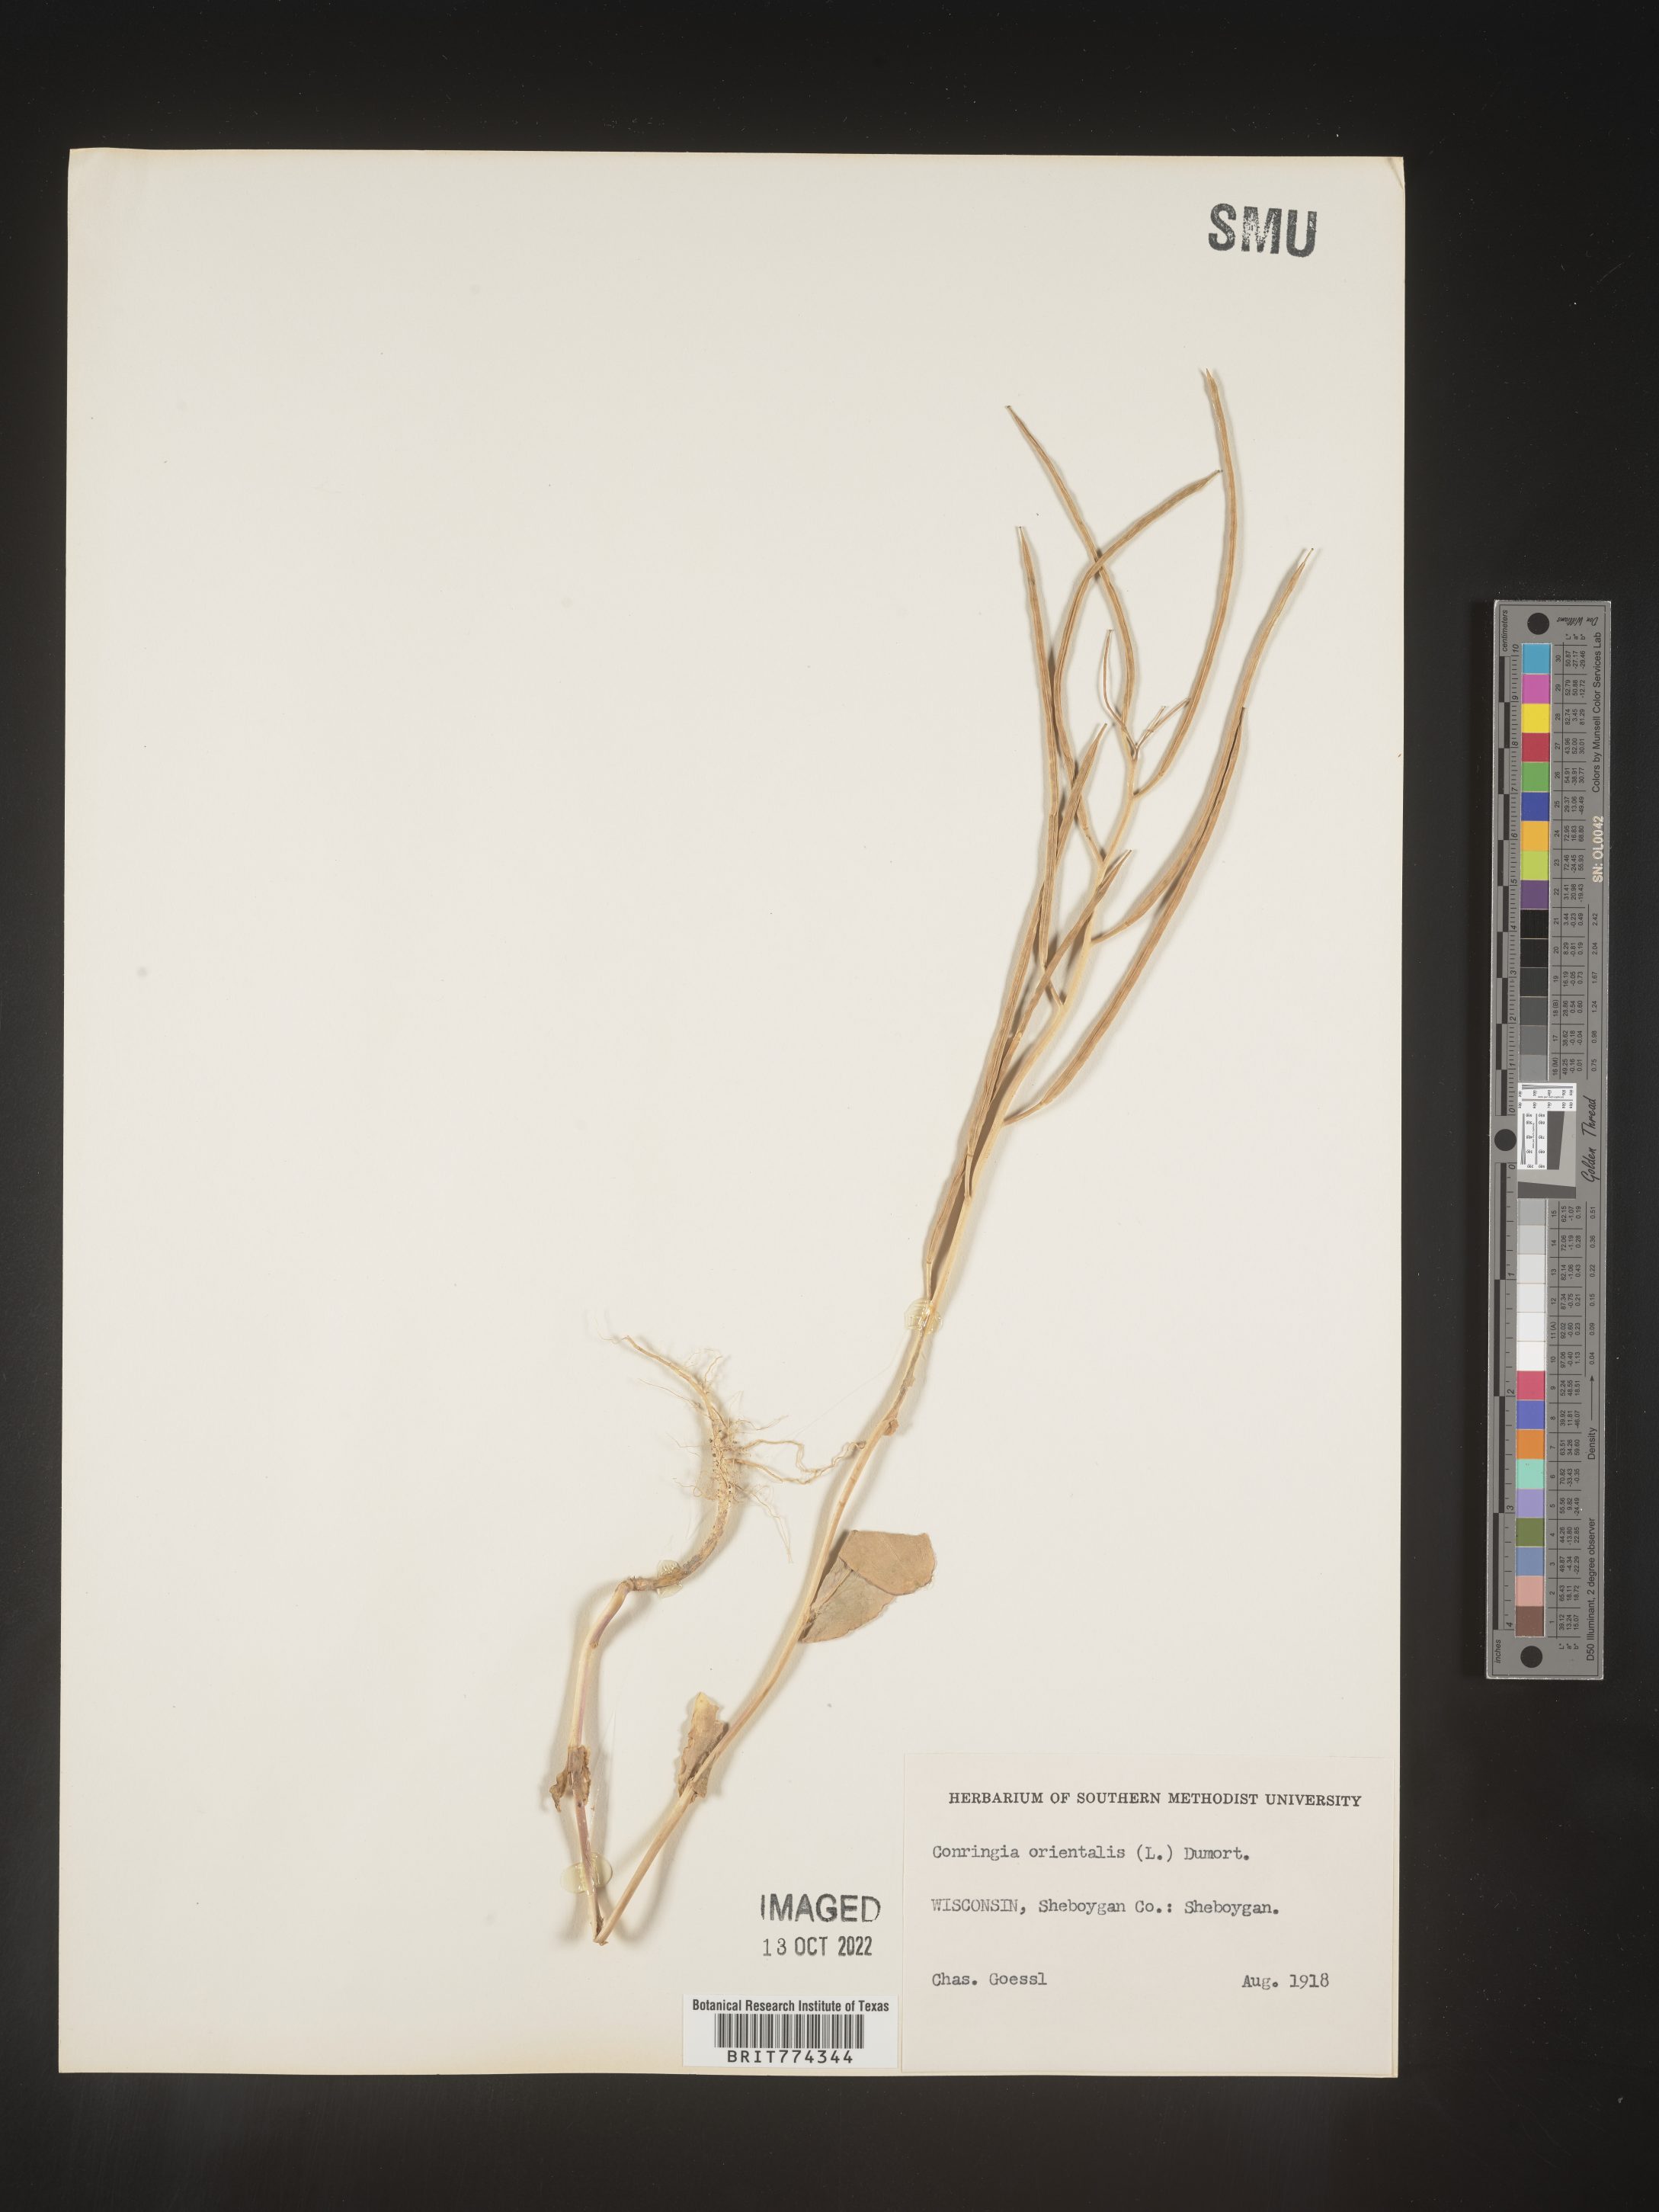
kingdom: Plantae
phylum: Tracheophyta
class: Magnoliopsida
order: Brassicales
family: Brassicaceae
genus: Conringia
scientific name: Conringia
